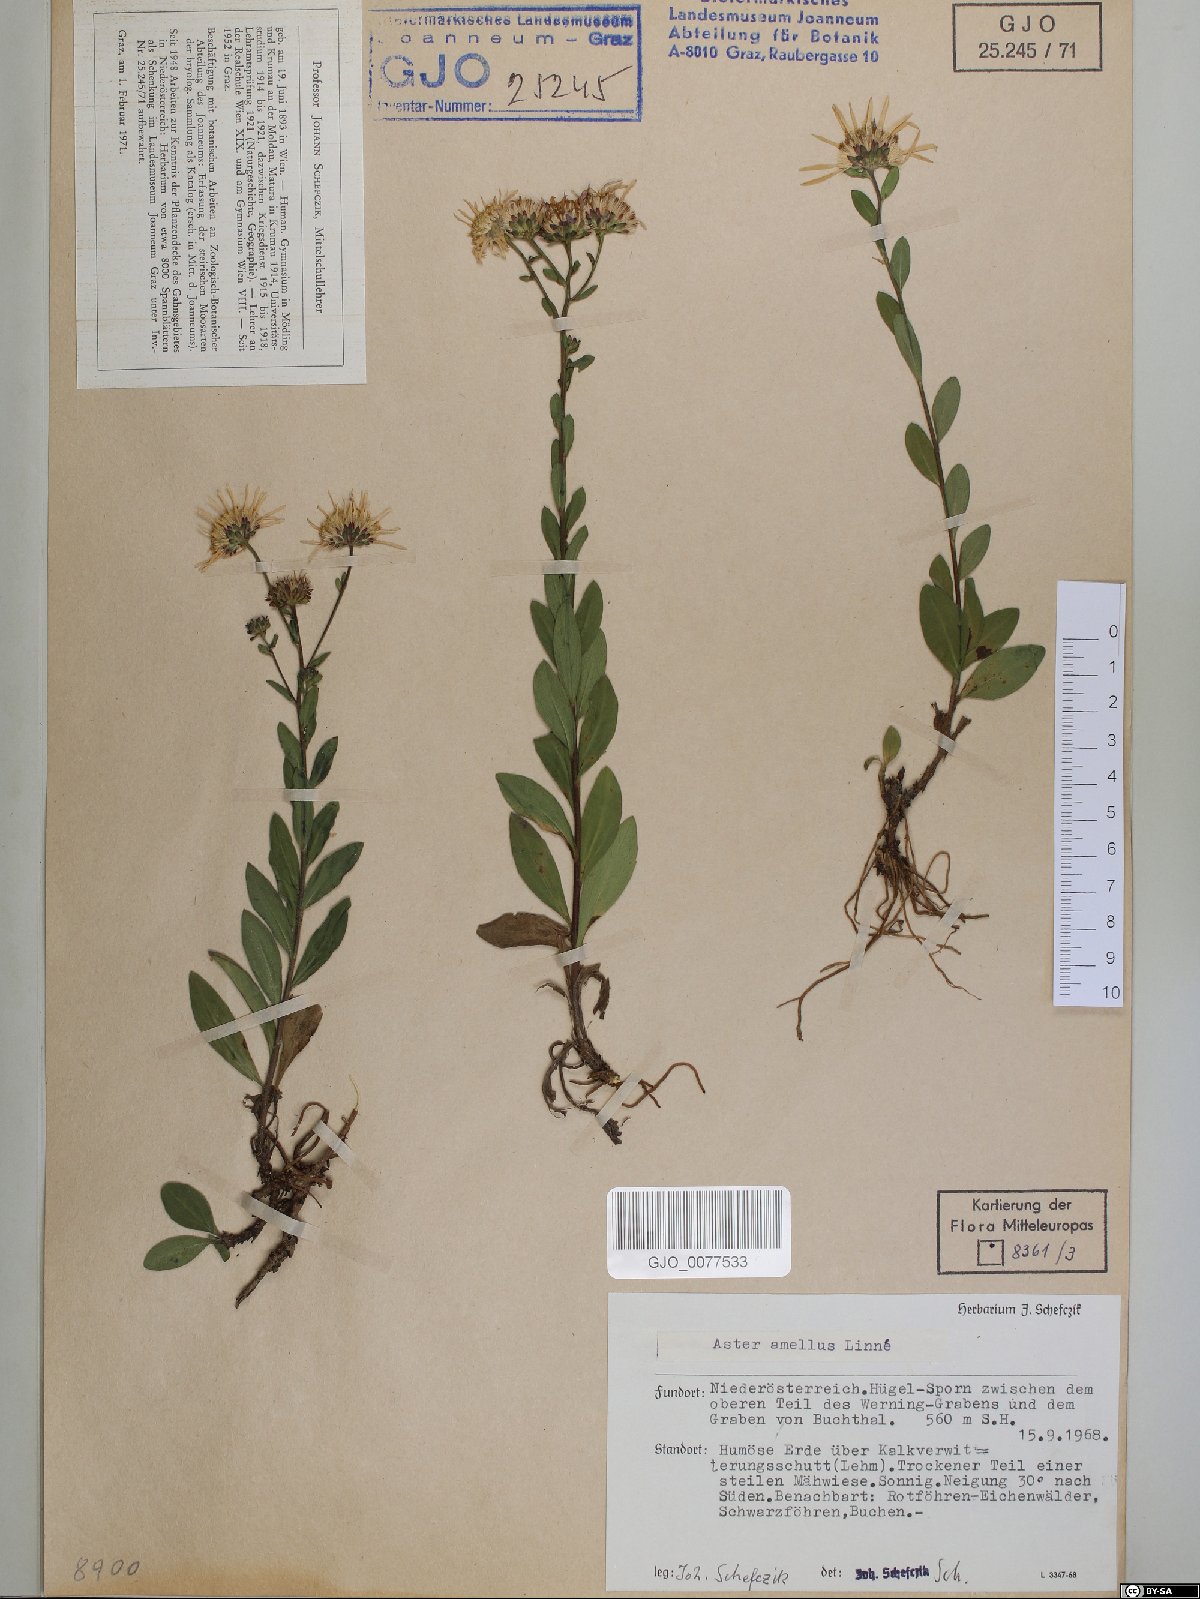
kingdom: Plantae
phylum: Tracheophyta
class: Magnoliopsida
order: Asterales
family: Asteraceae
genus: Aster
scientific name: Aster amellus
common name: European michaelmas daisy
